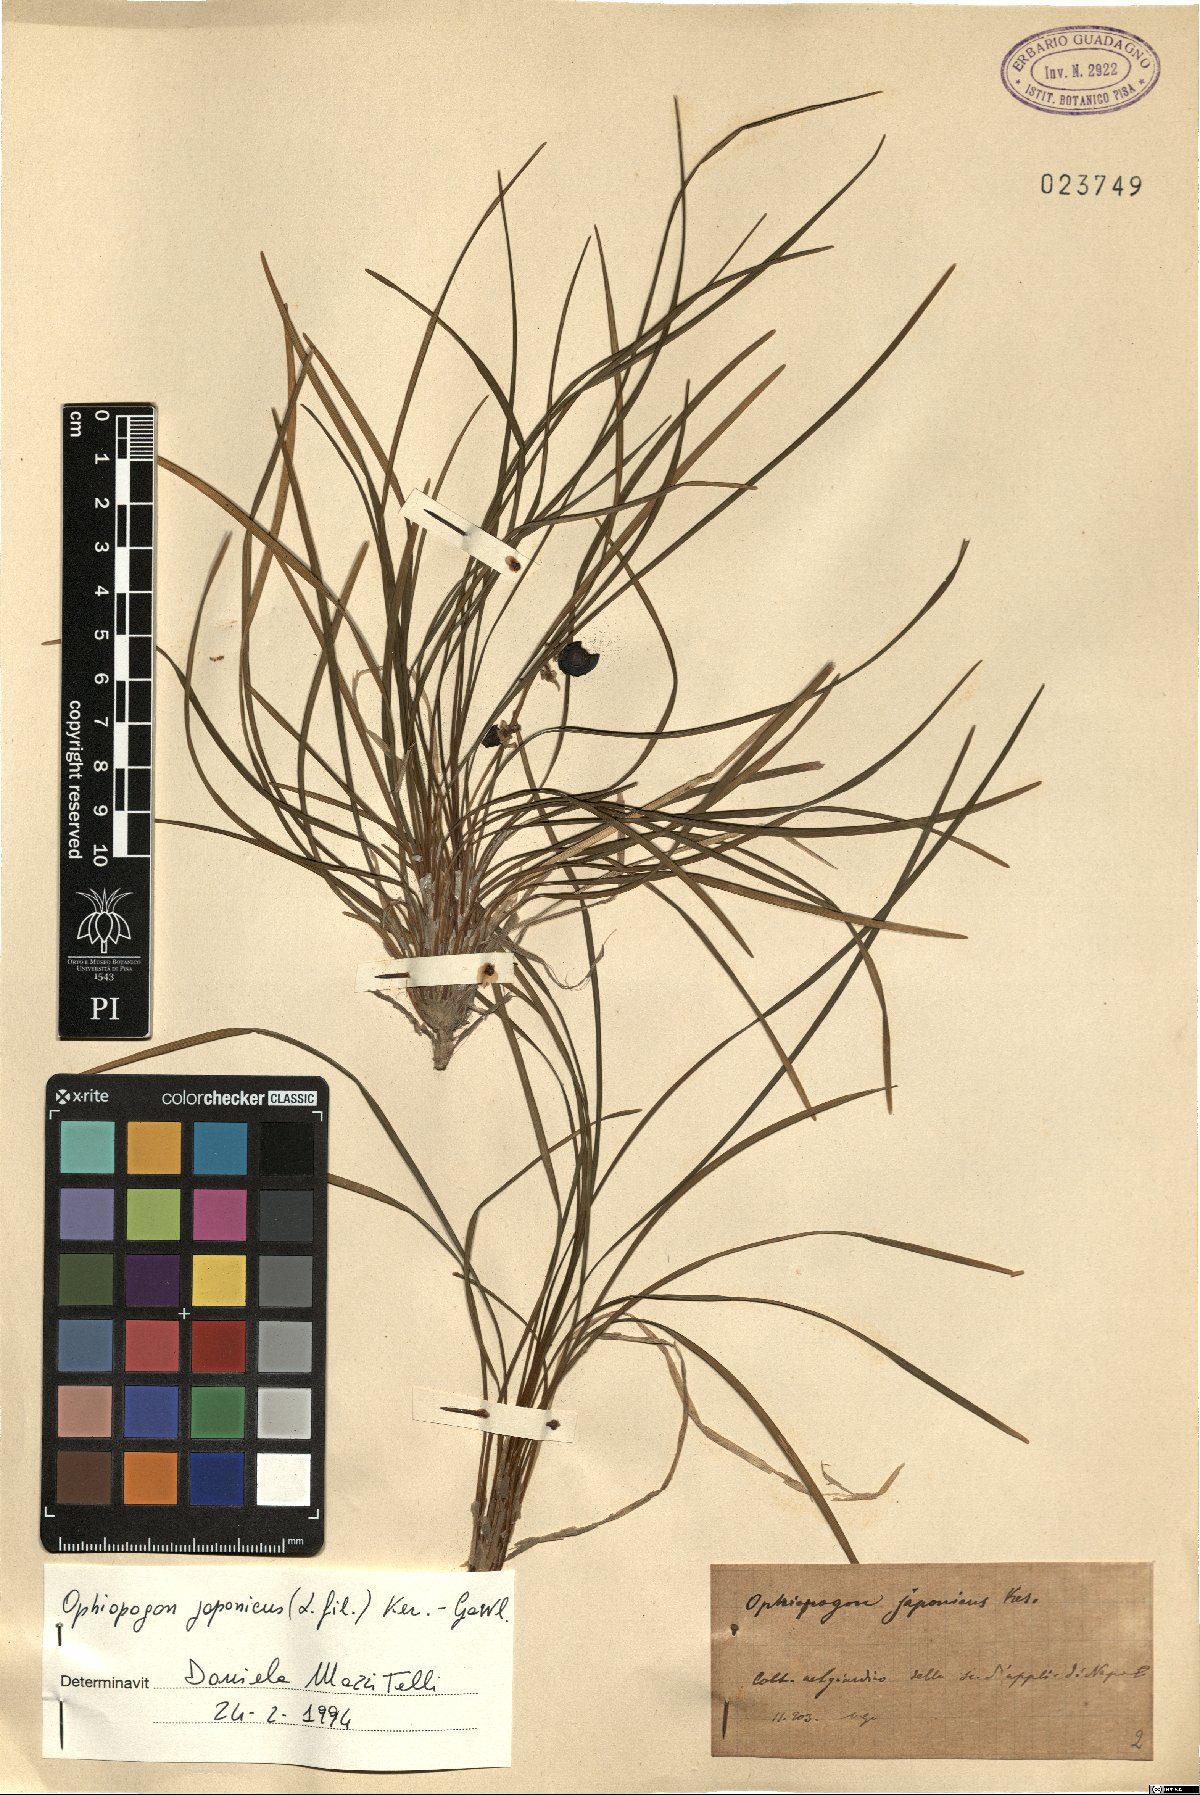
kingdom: Plantae
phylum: Tracheophyta
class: Liliopsida
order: Asparagales
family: Asparagaceae
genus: Ophiopogon
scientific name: Ophiopogon japonicus
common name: Dwarf lilyturf
